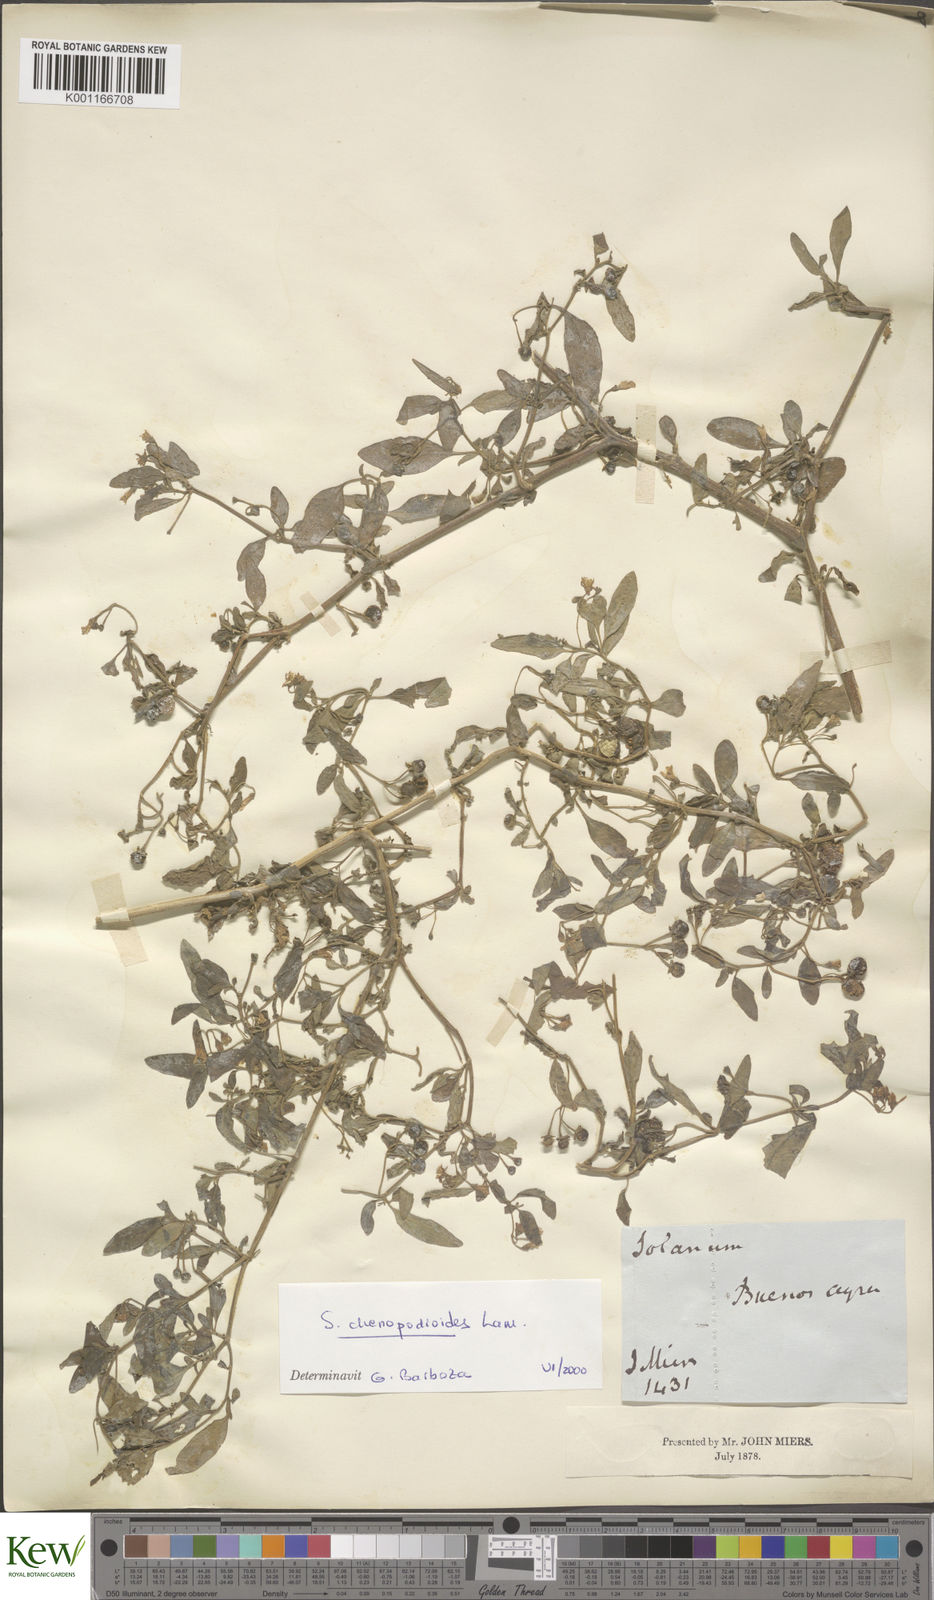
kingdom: Plantae
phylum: Tracheophyta
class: Magnoliopsida
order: Solanales
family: Solanaceae
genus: Solanum
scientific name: Solanum chenopodioides
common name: Tall nightshade
